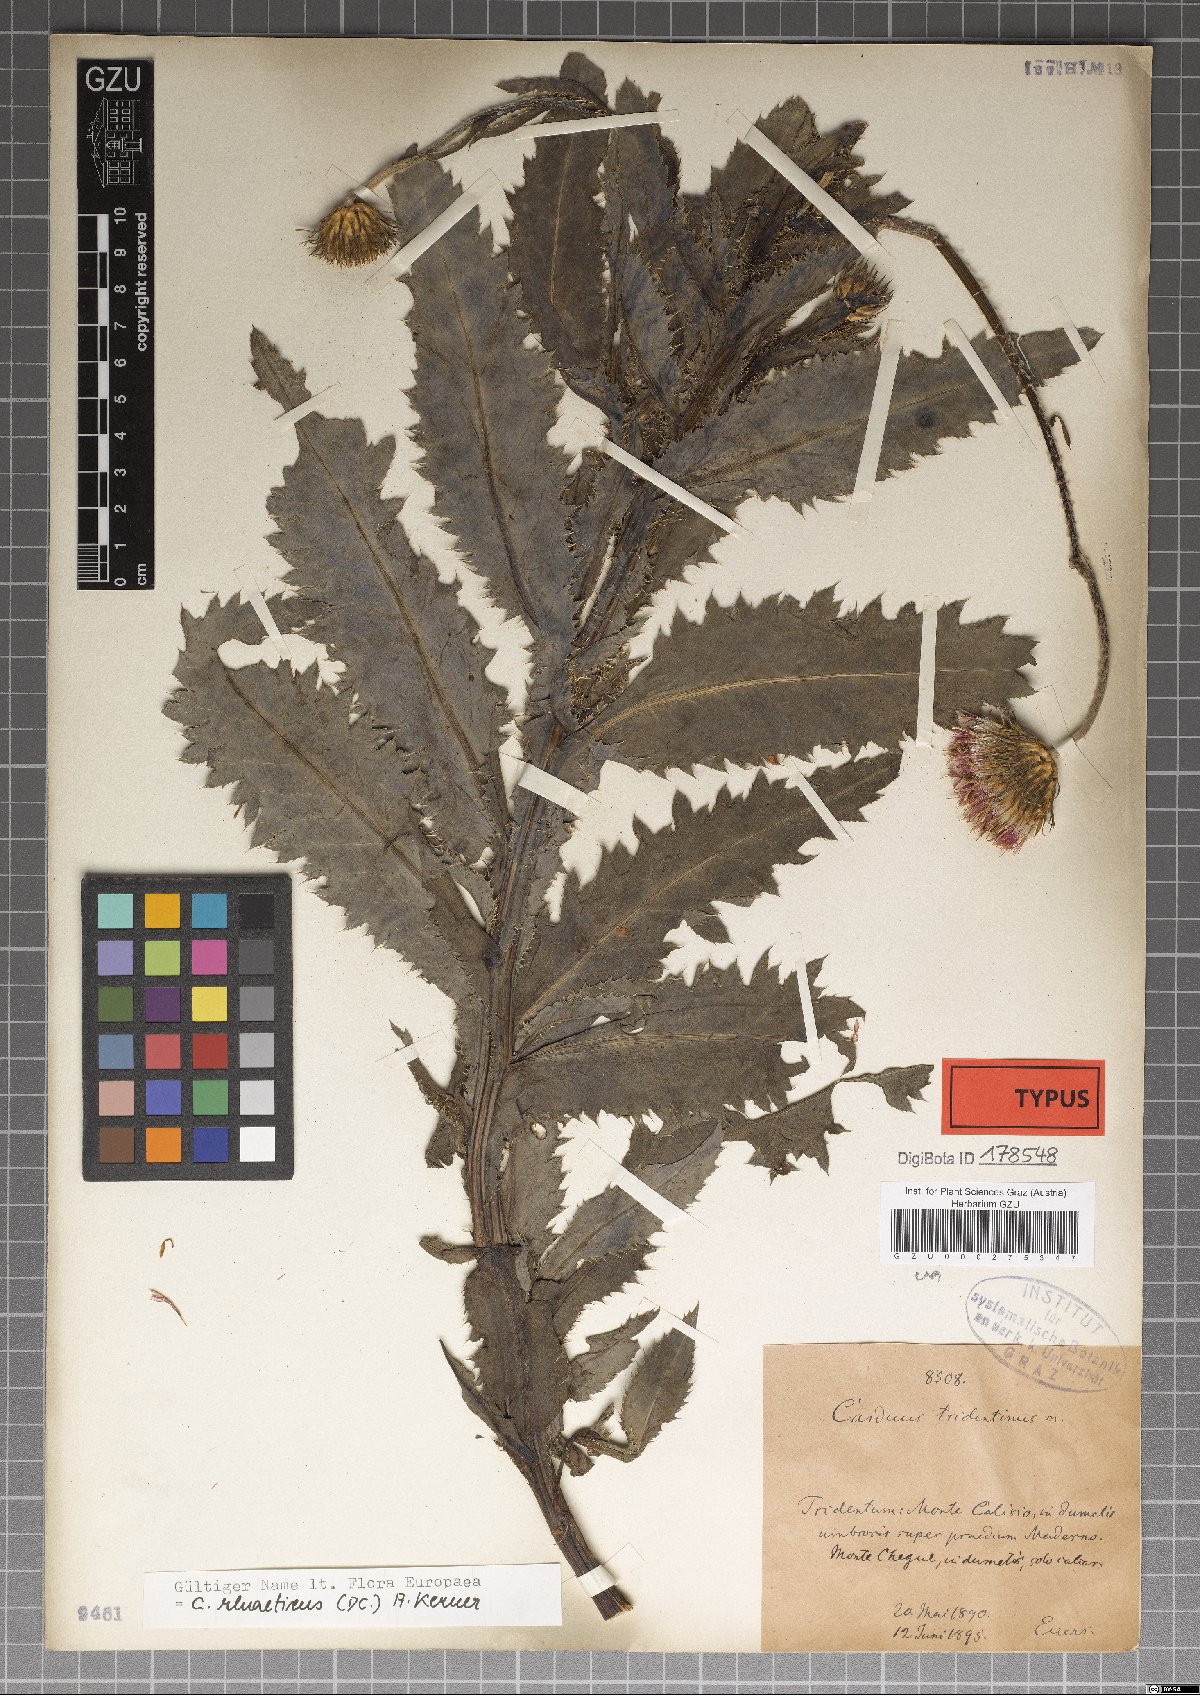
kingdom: Plantae
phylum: Tracheophyta
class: Magnoliopsida
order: Asterales
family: Asteraceae
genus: Carduus
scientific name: Carduus defloratus
